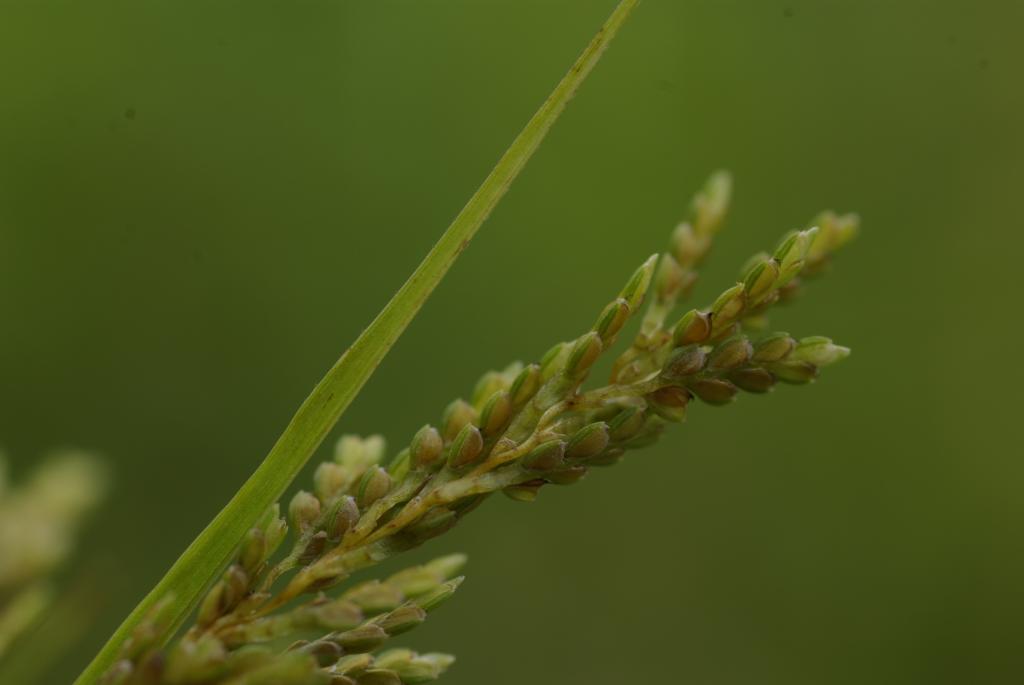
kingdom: Plantae
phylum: Tracheophyta
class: Liliopsida
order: Poales
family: Cyperaceae
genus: Cyperus
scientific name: Cyperus iria
